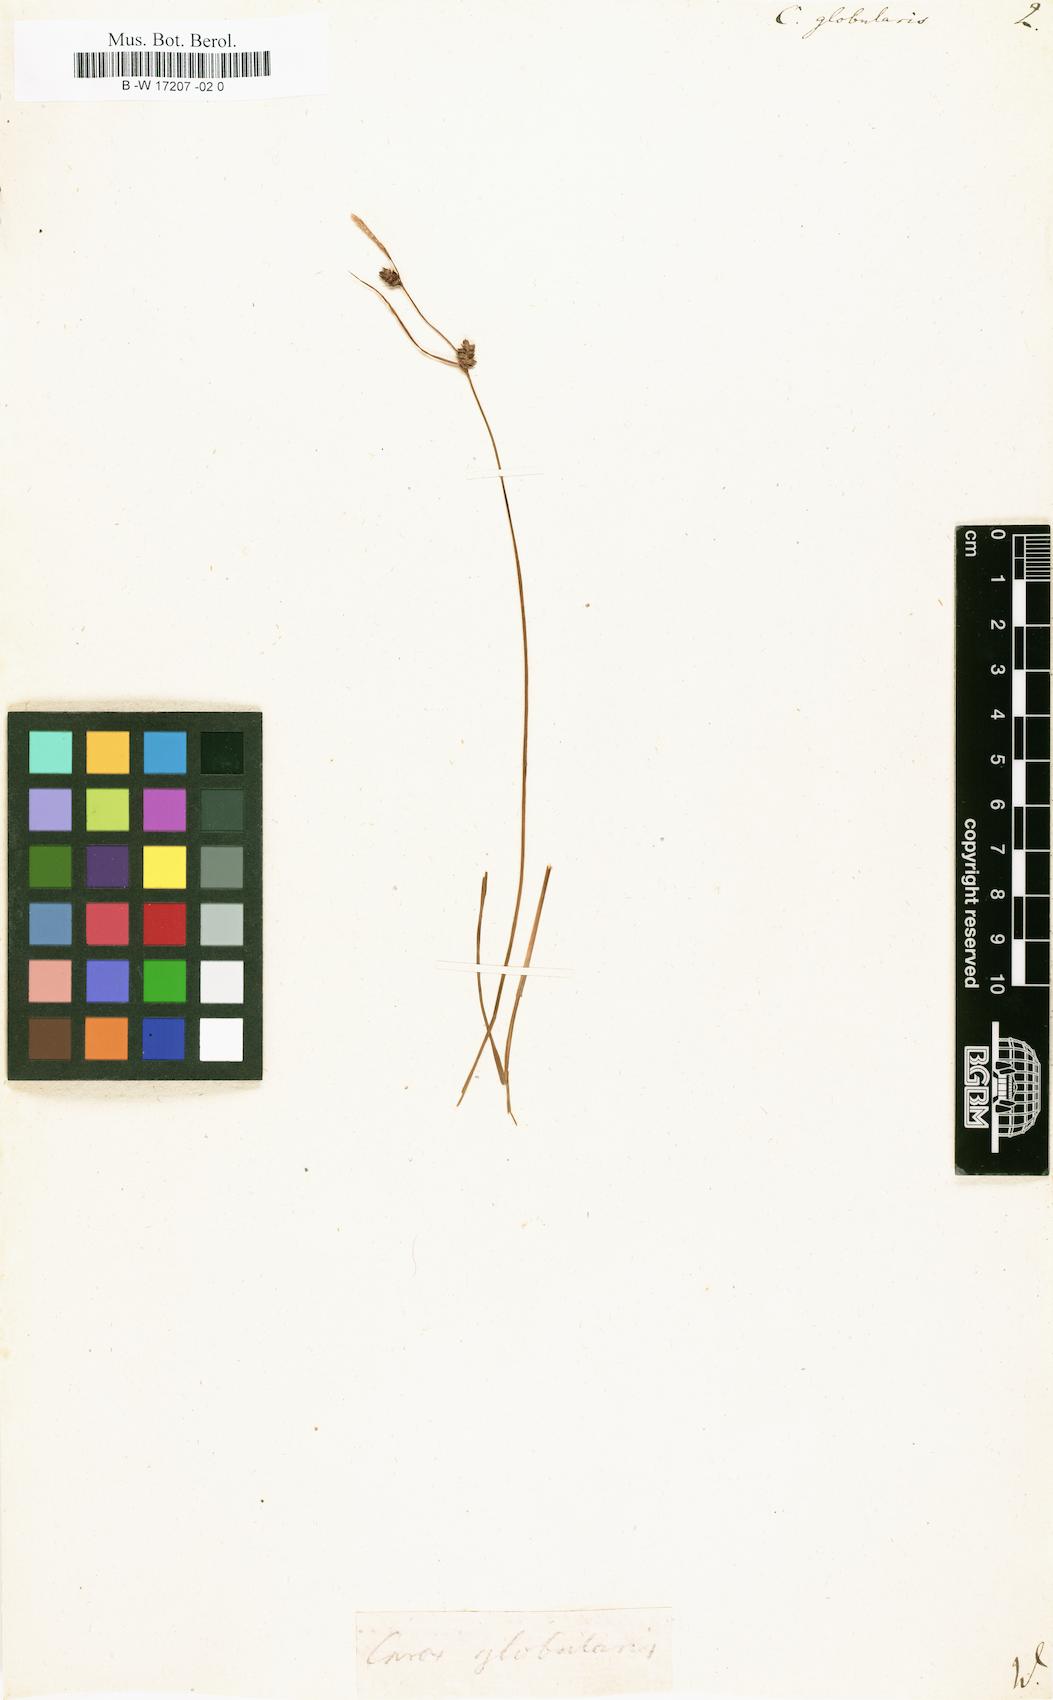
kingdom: Plantae
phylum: Tracheophyta
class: Liliopsida
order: Poales
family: Cyperaceae
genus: Carex
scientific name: Carex globularis
